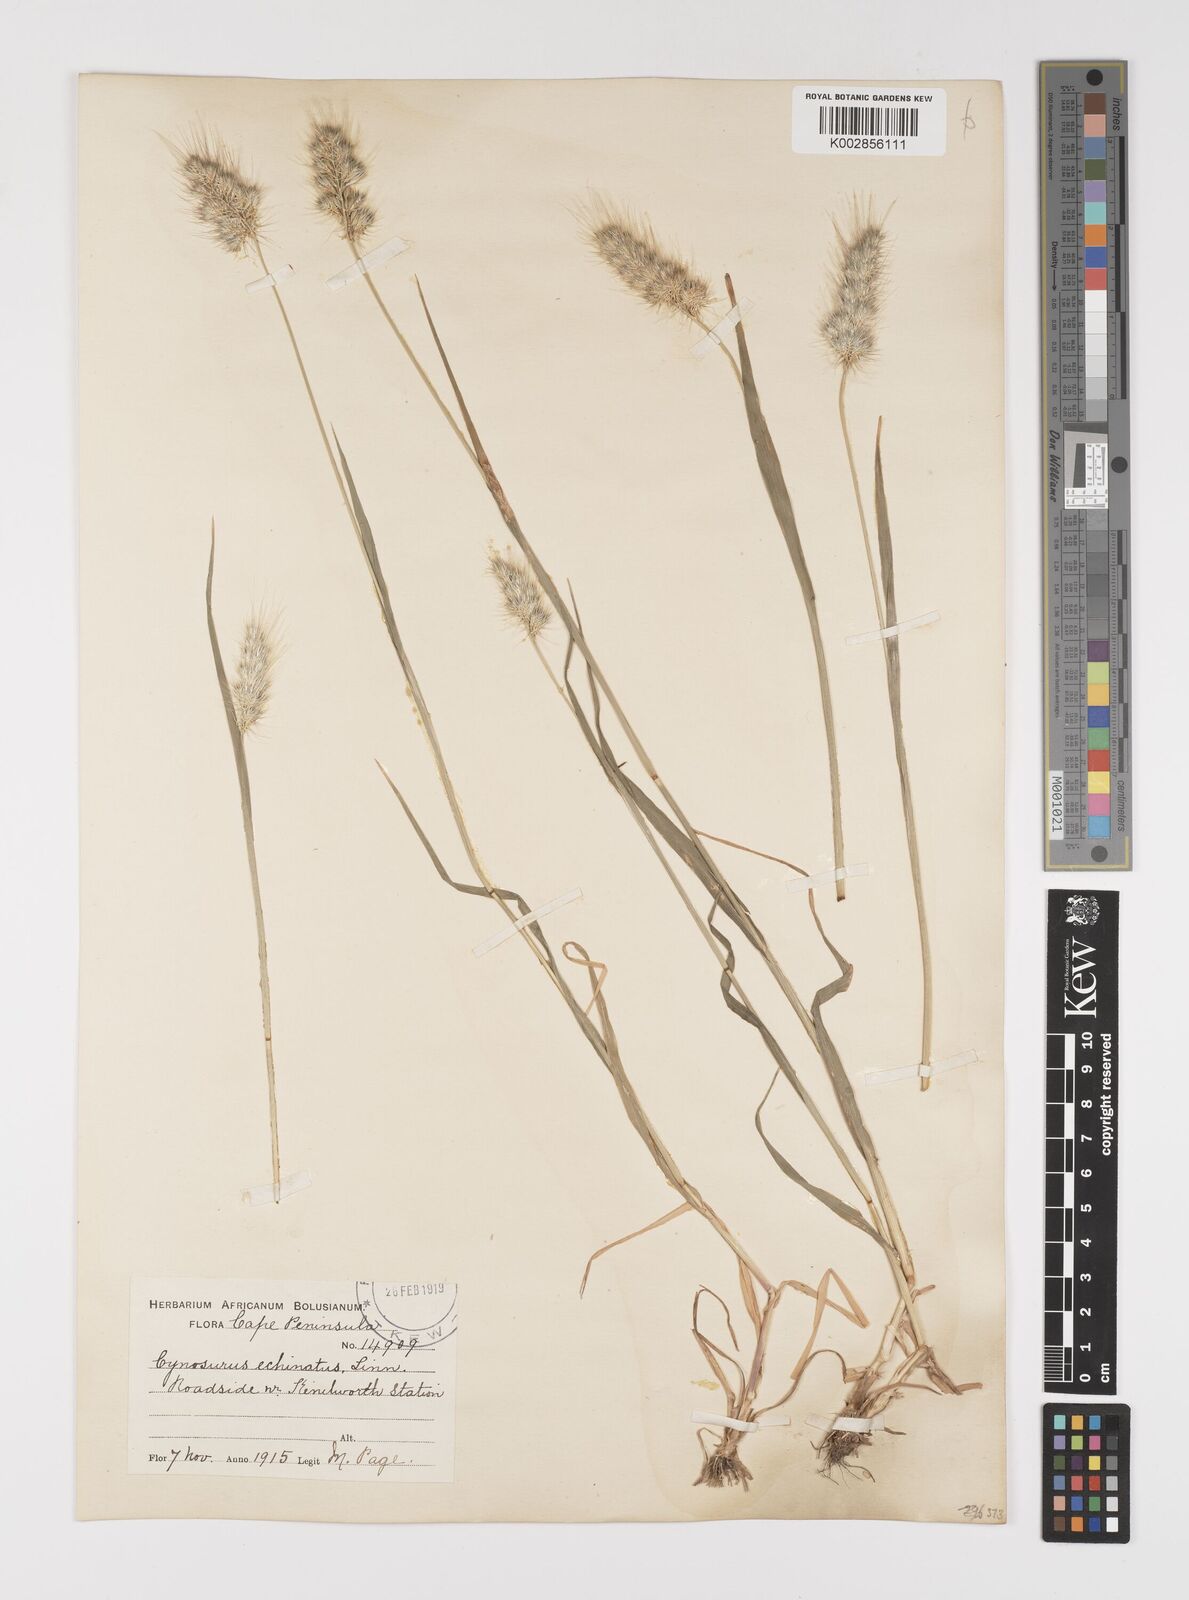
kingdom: Plantae
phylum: Tracheophyta
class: Liliopsida
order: Poales
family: Poaceae
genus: Cynosurus
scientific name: Cynosurus echinatus
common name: Rough dog's-tail
